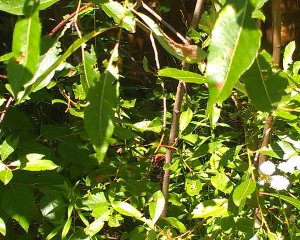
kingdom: Animalia
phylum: Arthropoda
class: Insecta
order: Lepidoptera
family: Nymphalidae
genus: Vanessa
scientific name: Vanessa atalanta
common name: Red Admiral
